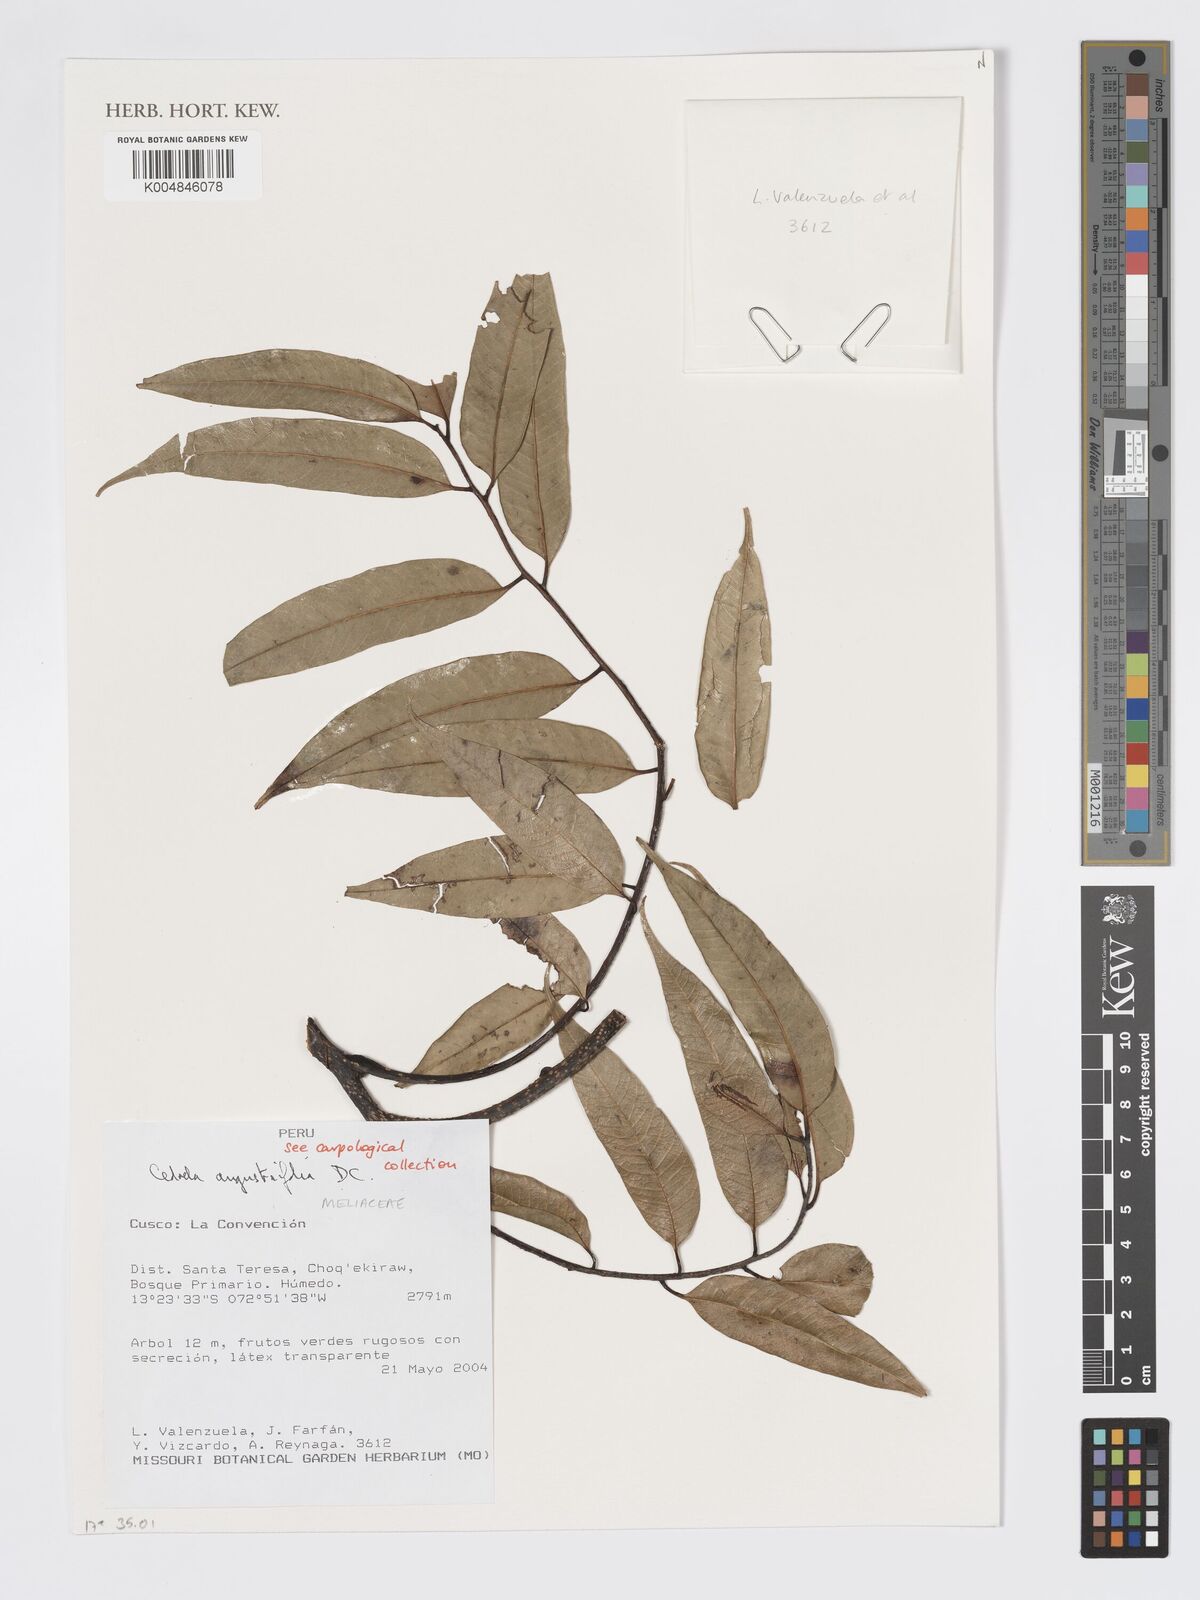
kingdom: Plantae
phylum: Tracheophyta
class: Magnoliopsida
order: Sapindales
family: Meliaceae
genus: Cedrela
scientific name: Cedrela odorata
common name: Red cedar
